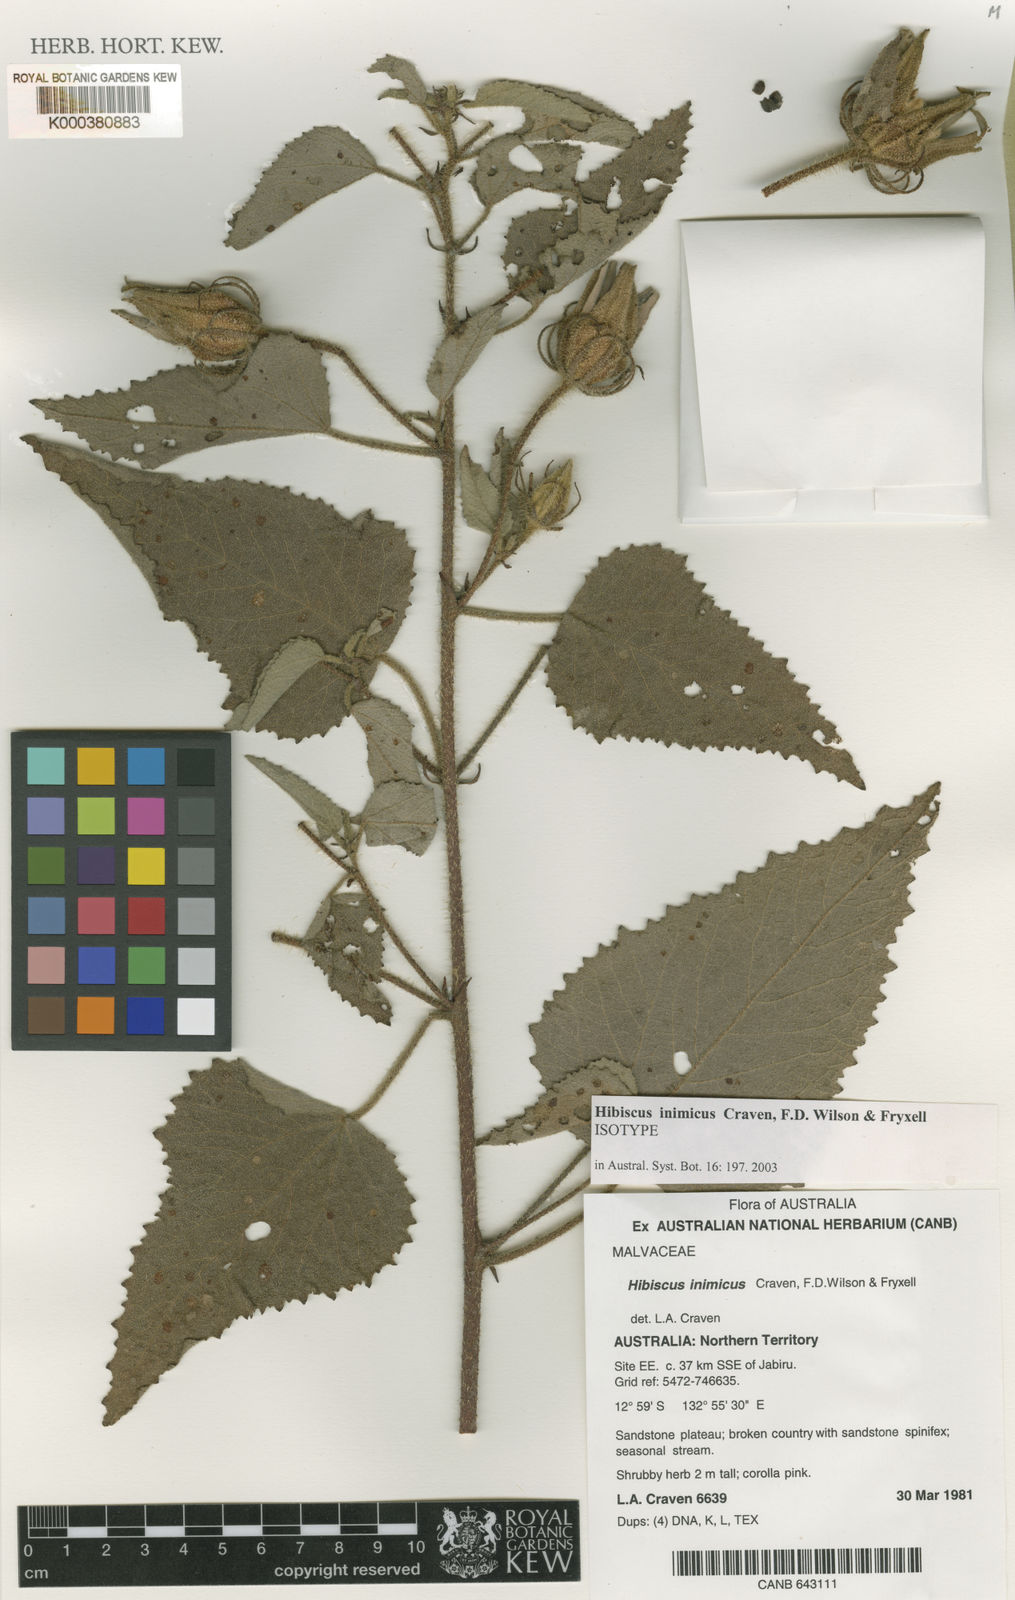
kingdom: Plantae
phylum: Tracheophyta
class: Magnoliopsida
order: Malvales
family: Malvaceae
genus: Hibiscus
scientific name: Hibiscus inimicus
